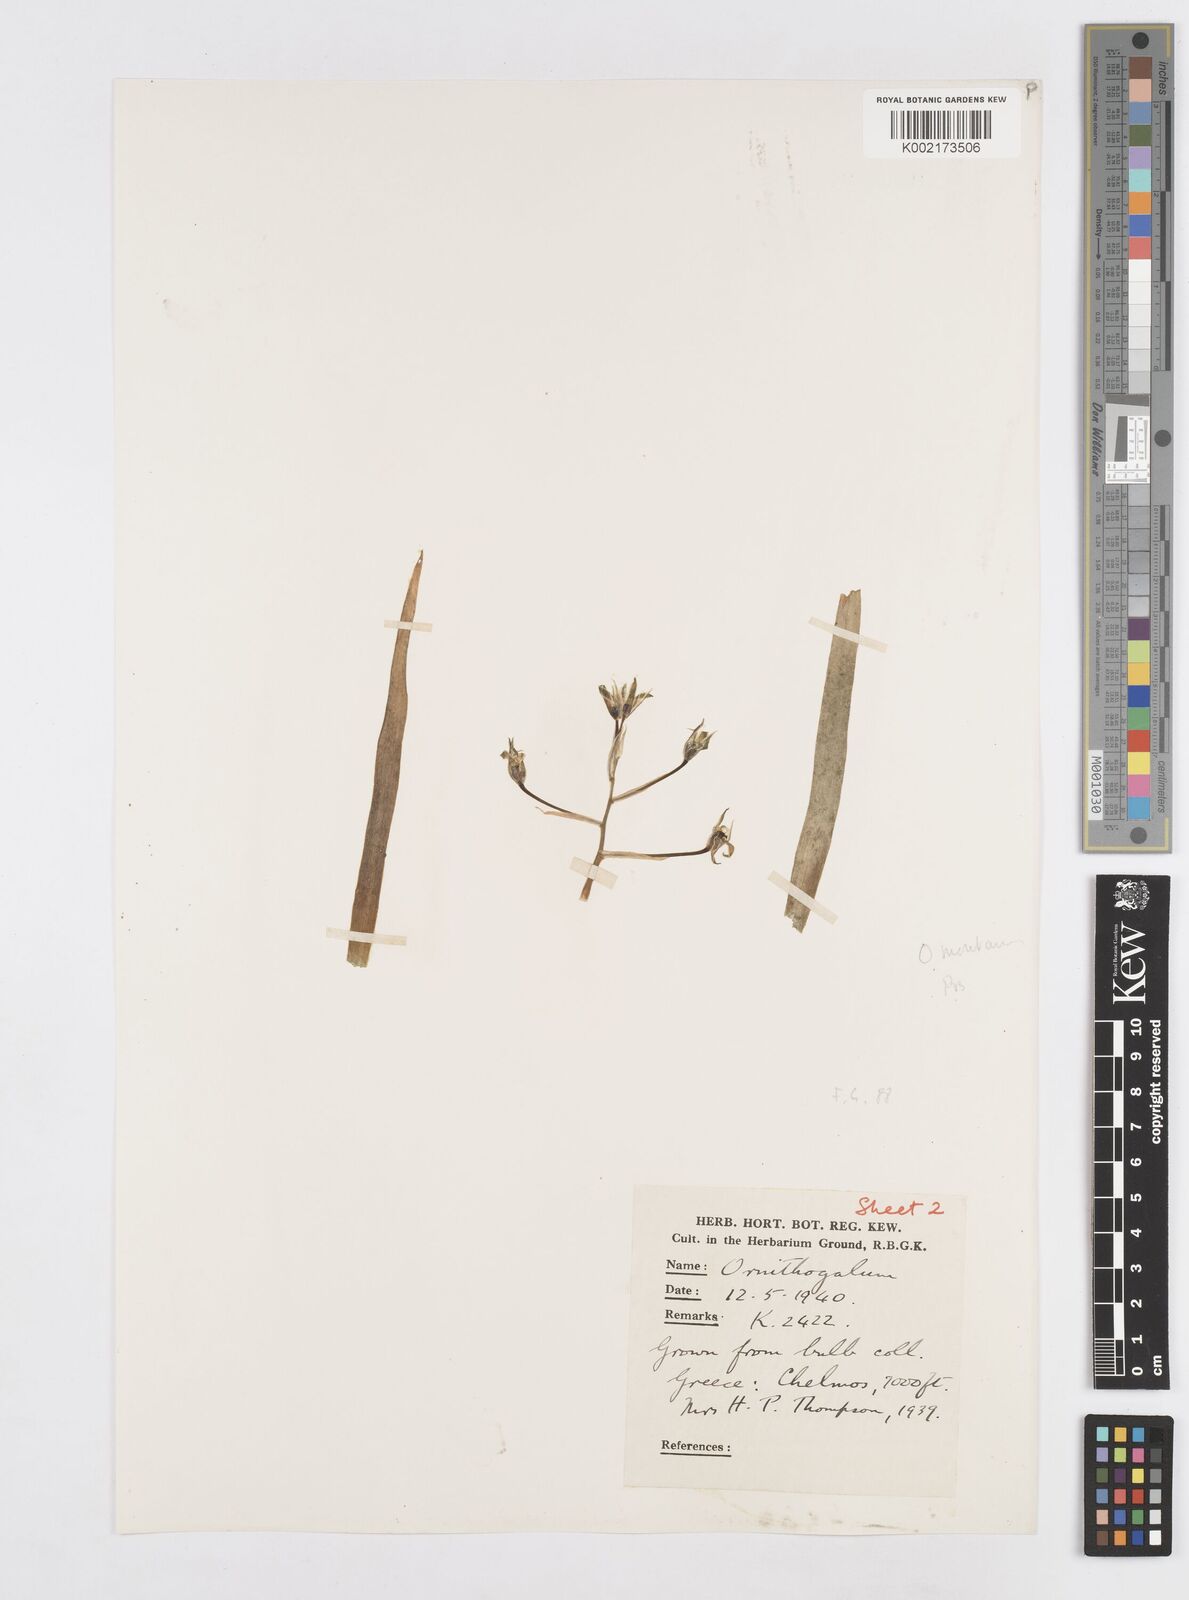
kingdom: Plantae
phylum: Tracheophyta
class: Liliopsida
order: Asparagales
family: Asparagaceae
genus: Ornithogalum
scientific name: Ornithogalum montanum
